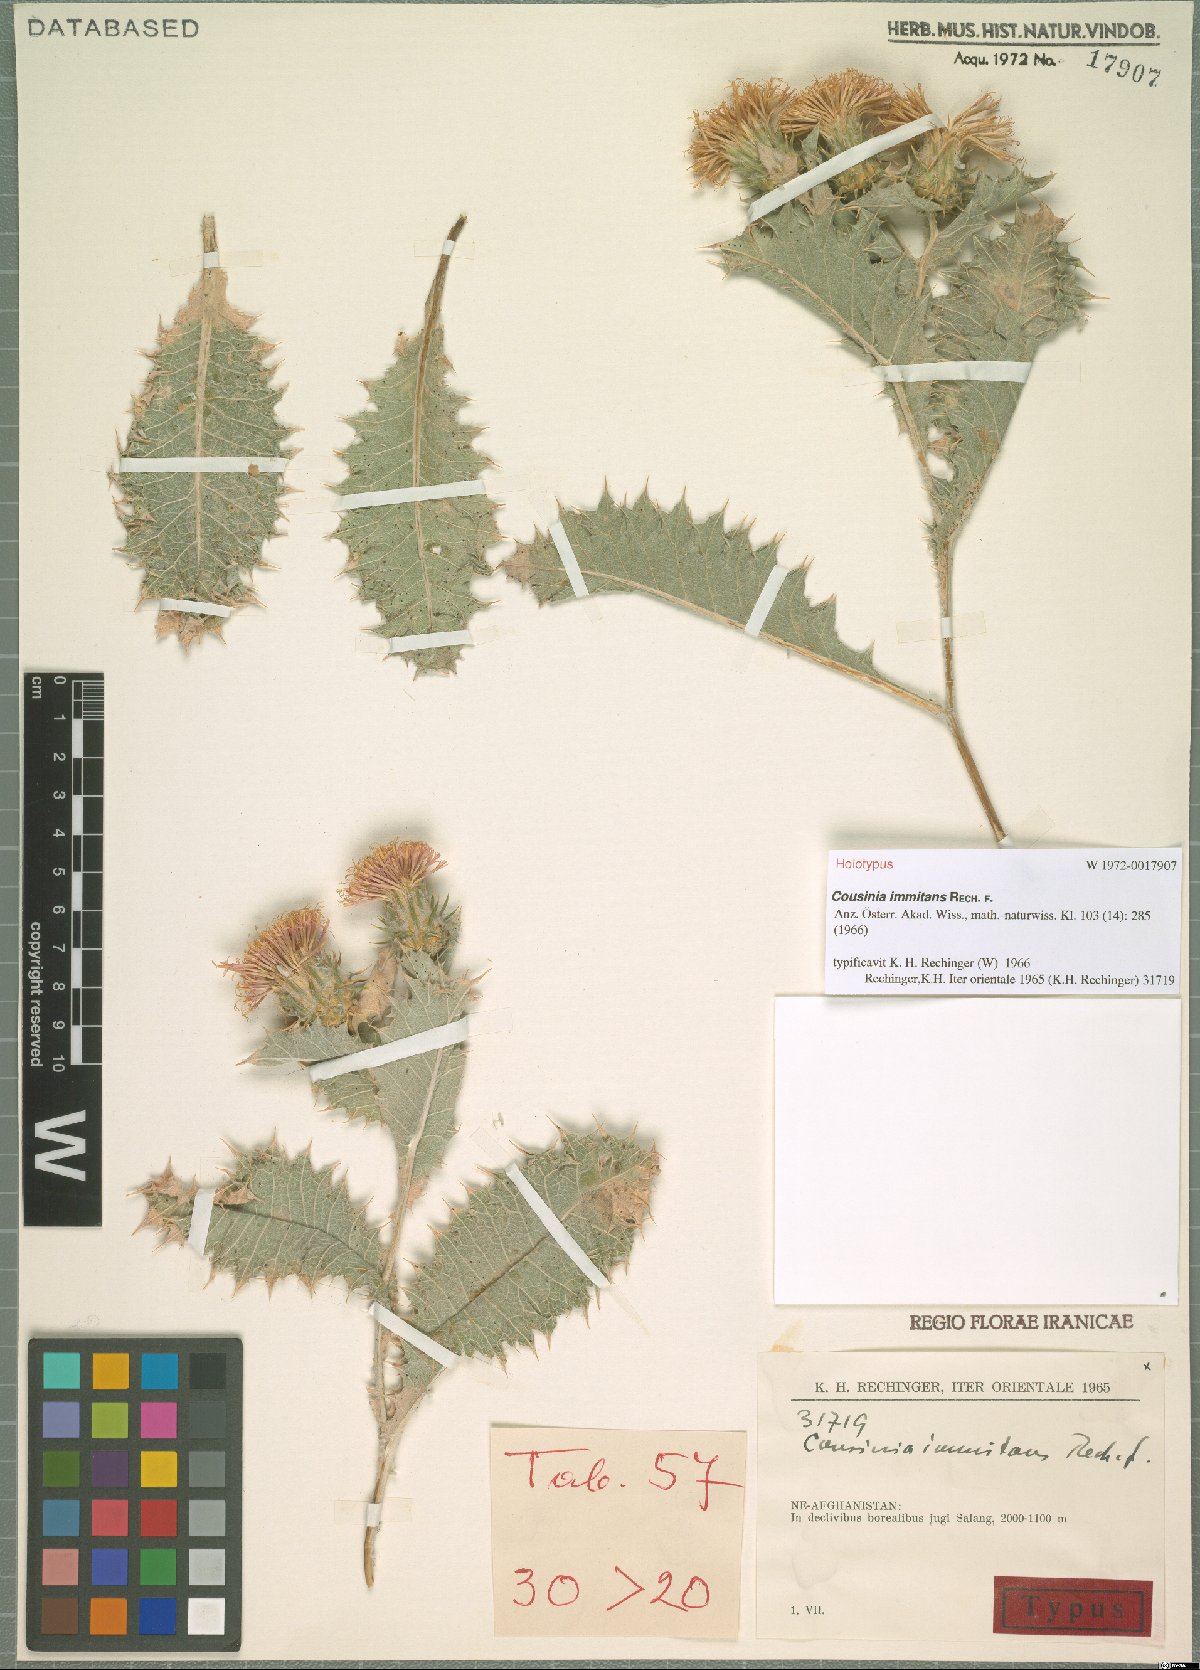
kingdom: Plantae
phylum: Tracheophyta
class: Magnoliopsida
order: Asterales
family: Asteraceae
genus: Cousinia
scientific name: Cousinia immitans
